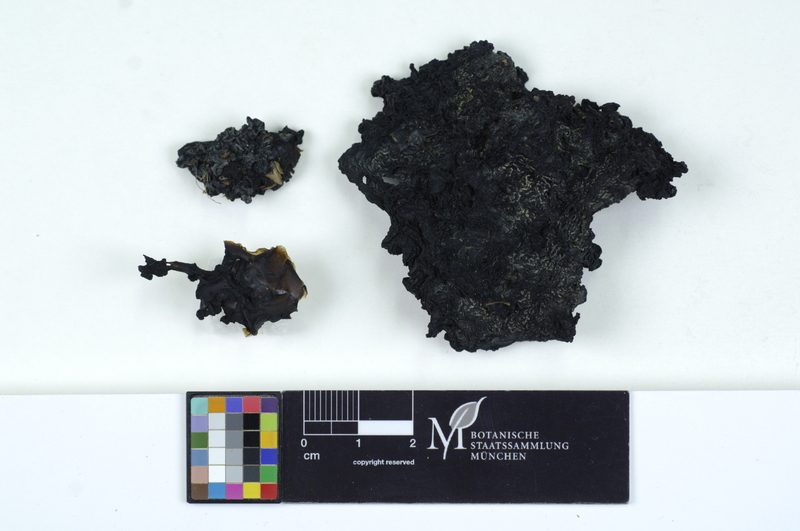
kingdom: Fungi
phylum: Basidiomycota
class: Agaricomycetes
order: Auriculariales
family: Auriculariaceae
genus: Exidia
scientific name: Exidia glandulosa
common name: Witches' butter
